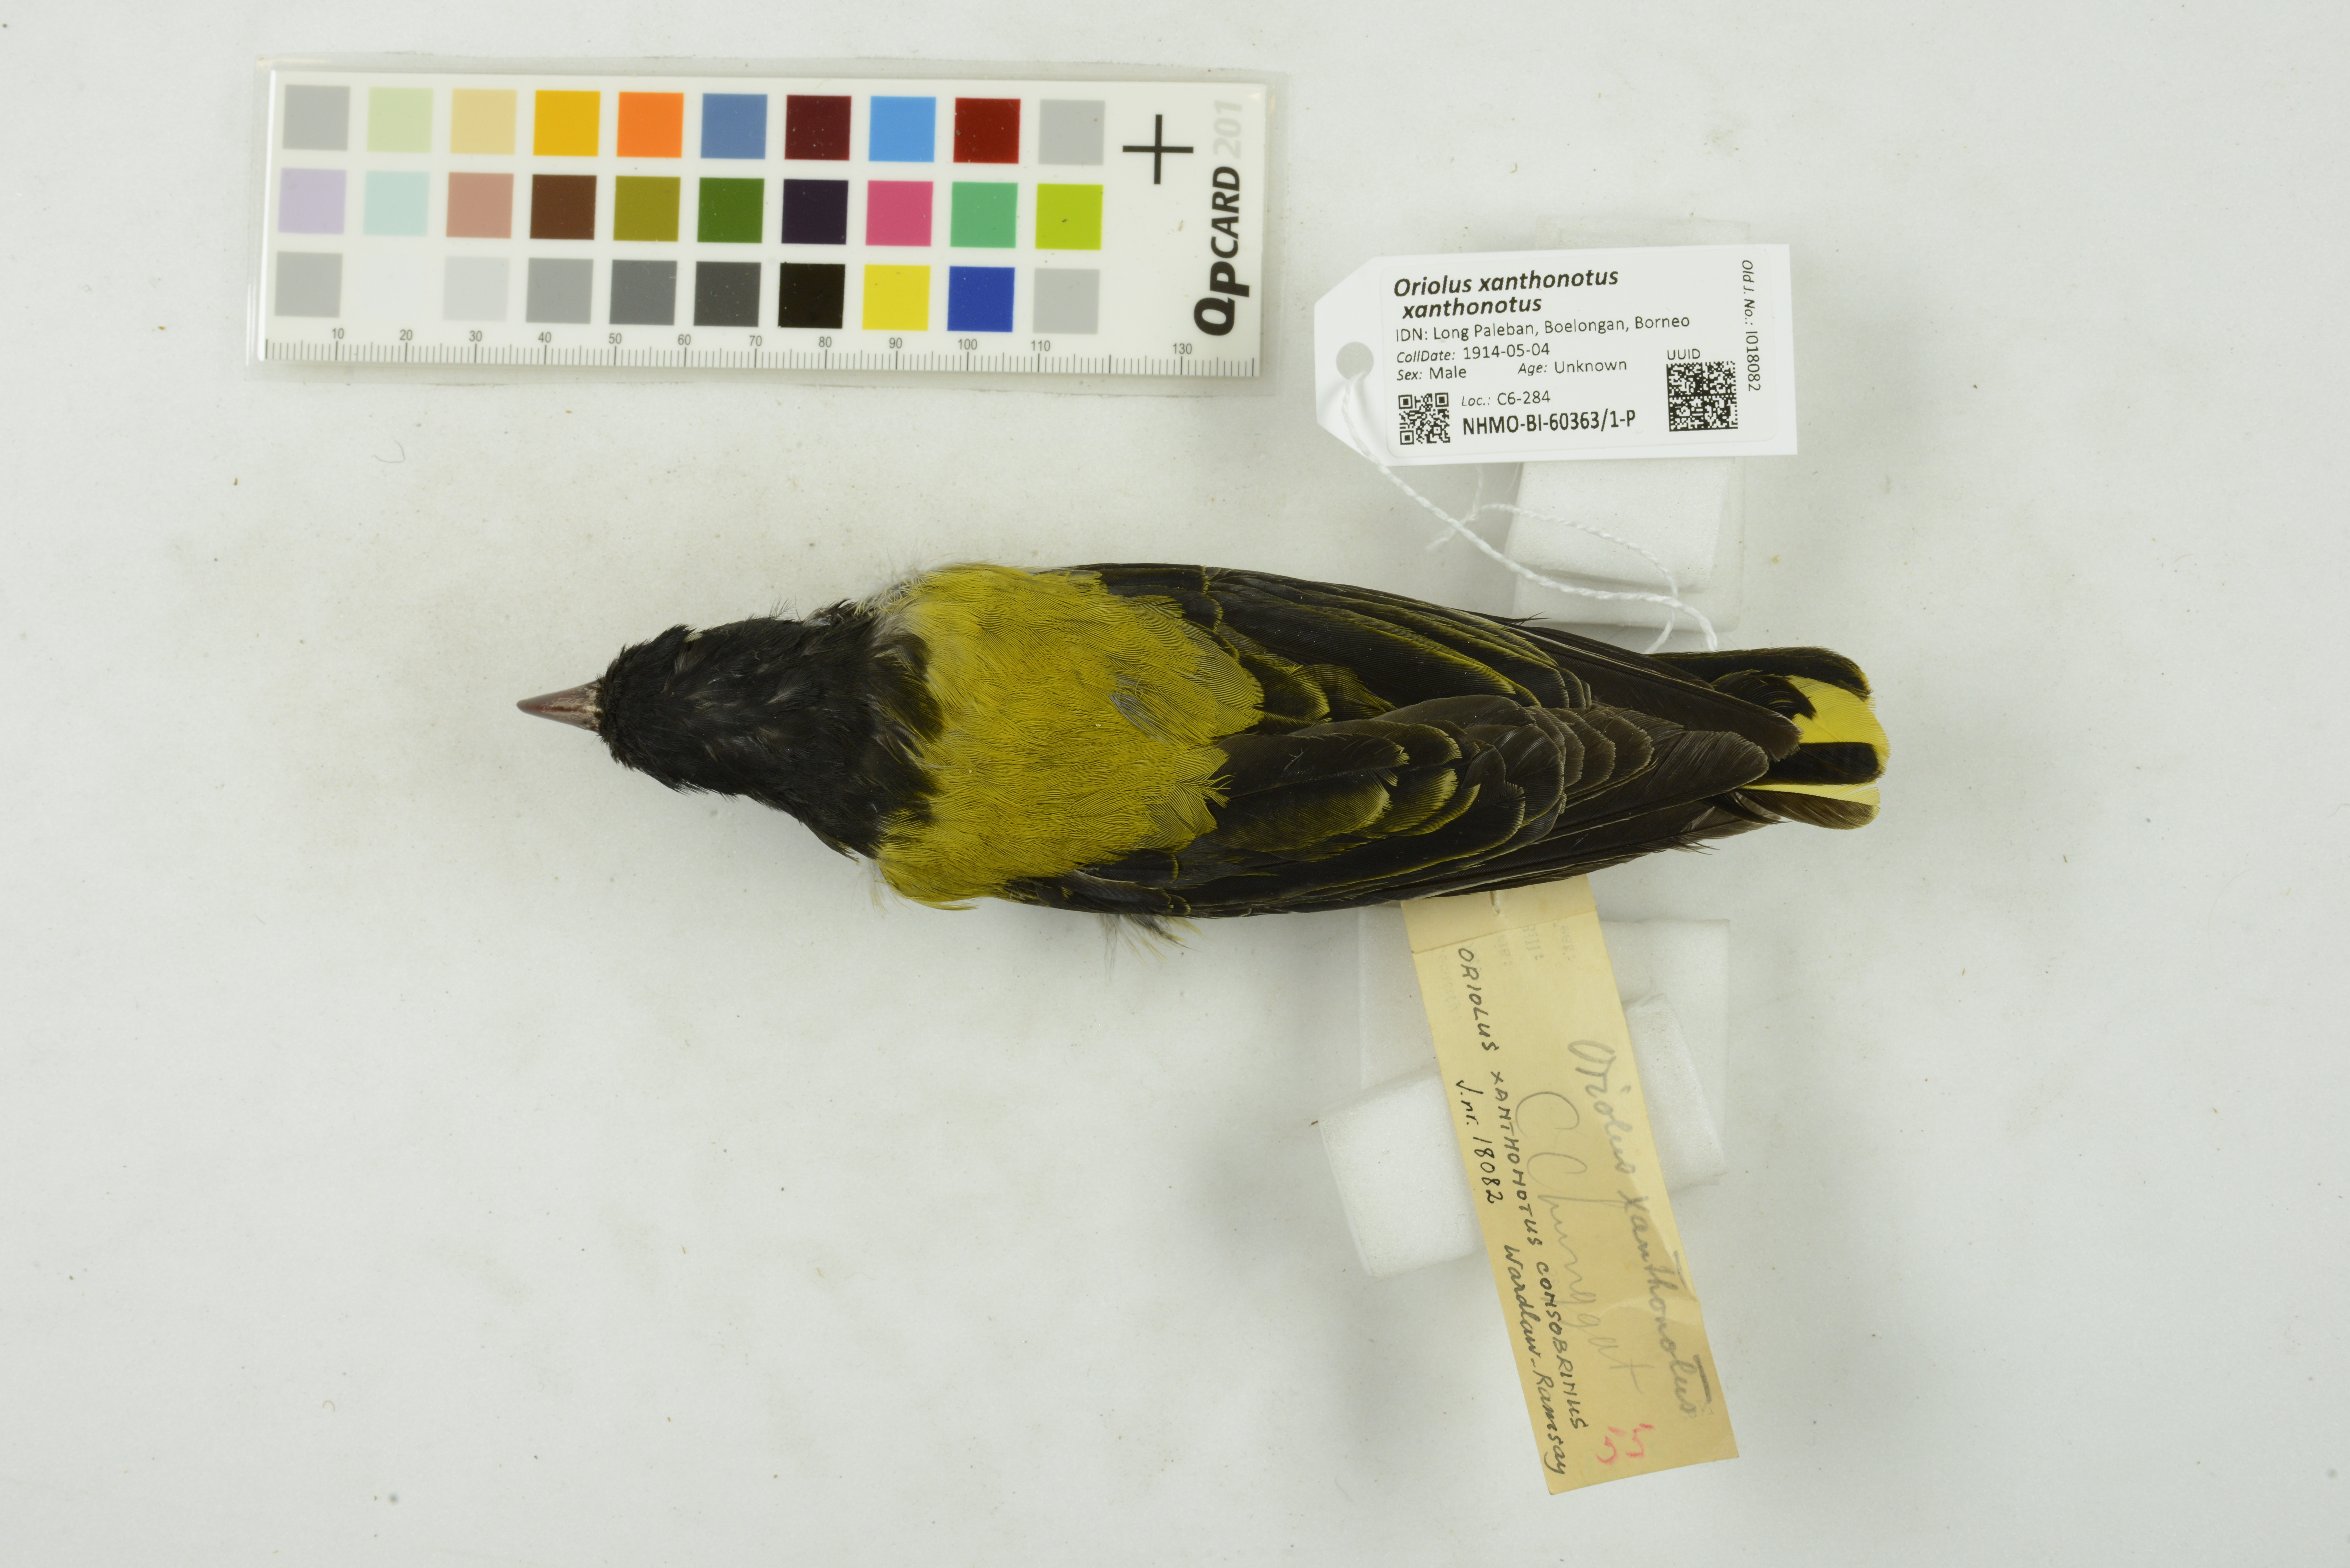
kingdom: Animalia
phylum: Chordata
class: Aves
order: Passeriformes
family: Oriolidae
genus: Oriolus
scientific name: Oriolus xanthonotus
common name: Dark-throated oriole
